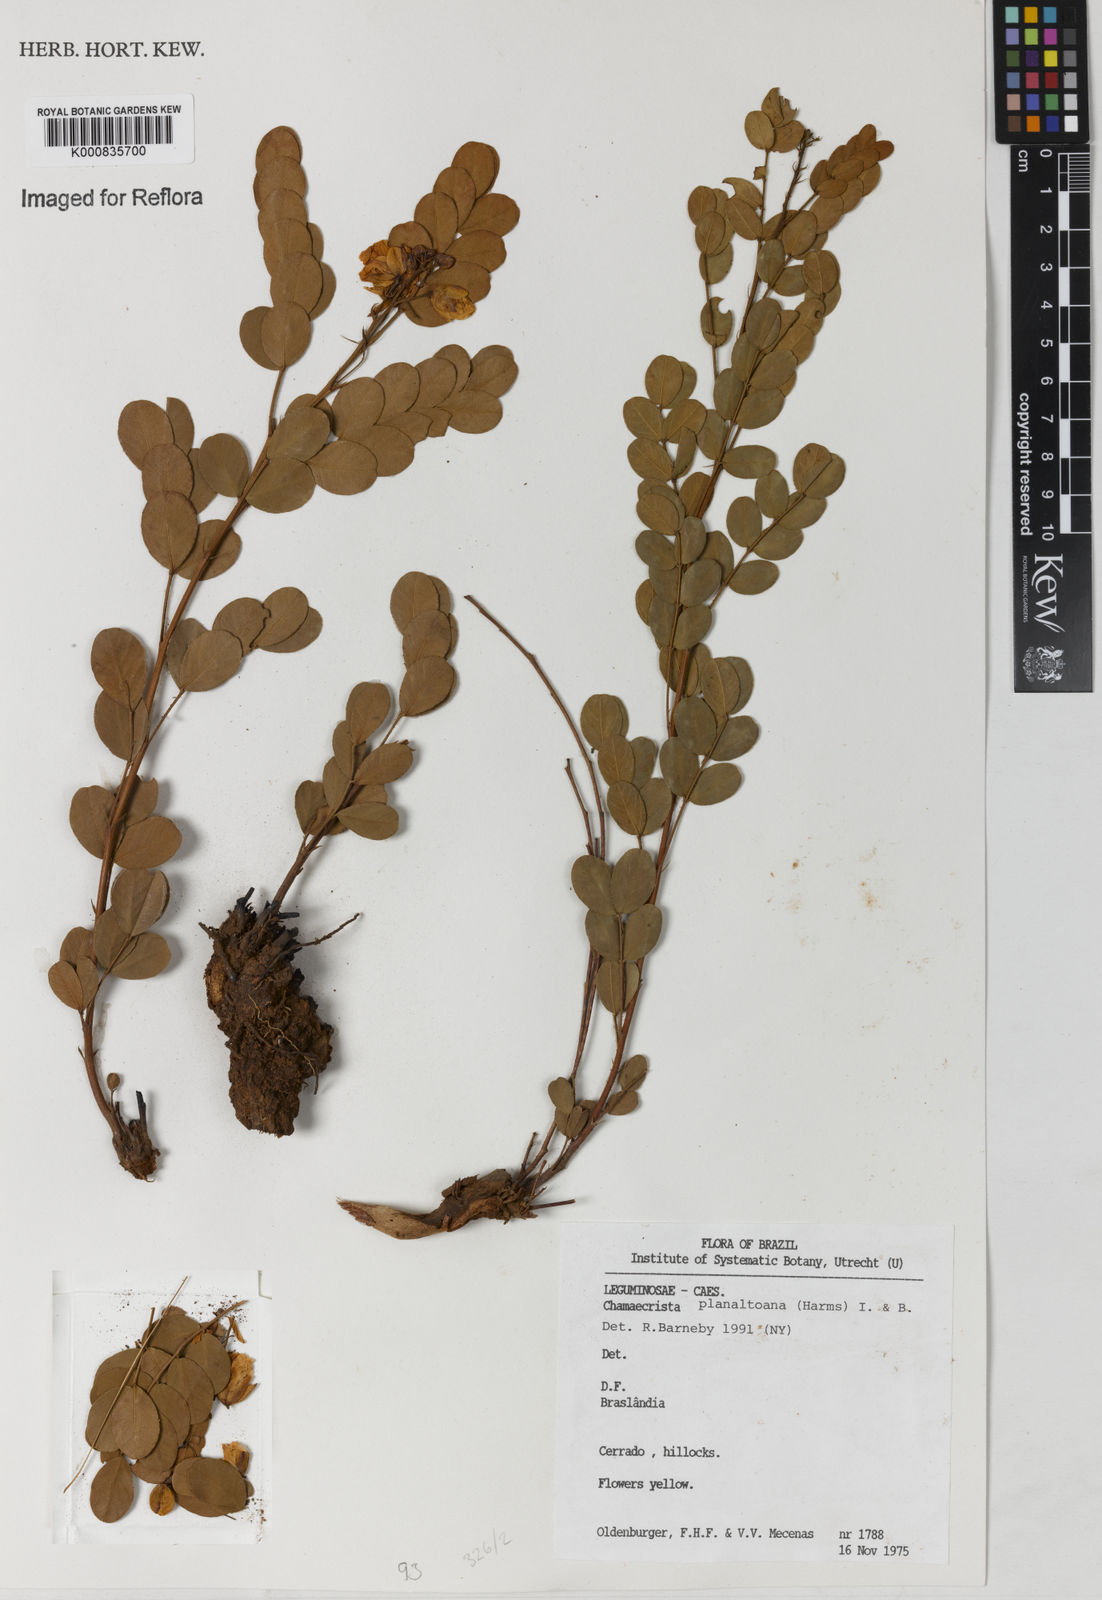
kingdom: Plantae
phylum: Tracheophyta
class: Magnoliopsida
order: Fabales
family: Fabaceae
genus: Chamaecrista
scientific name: Chamaecrista planaltoana
